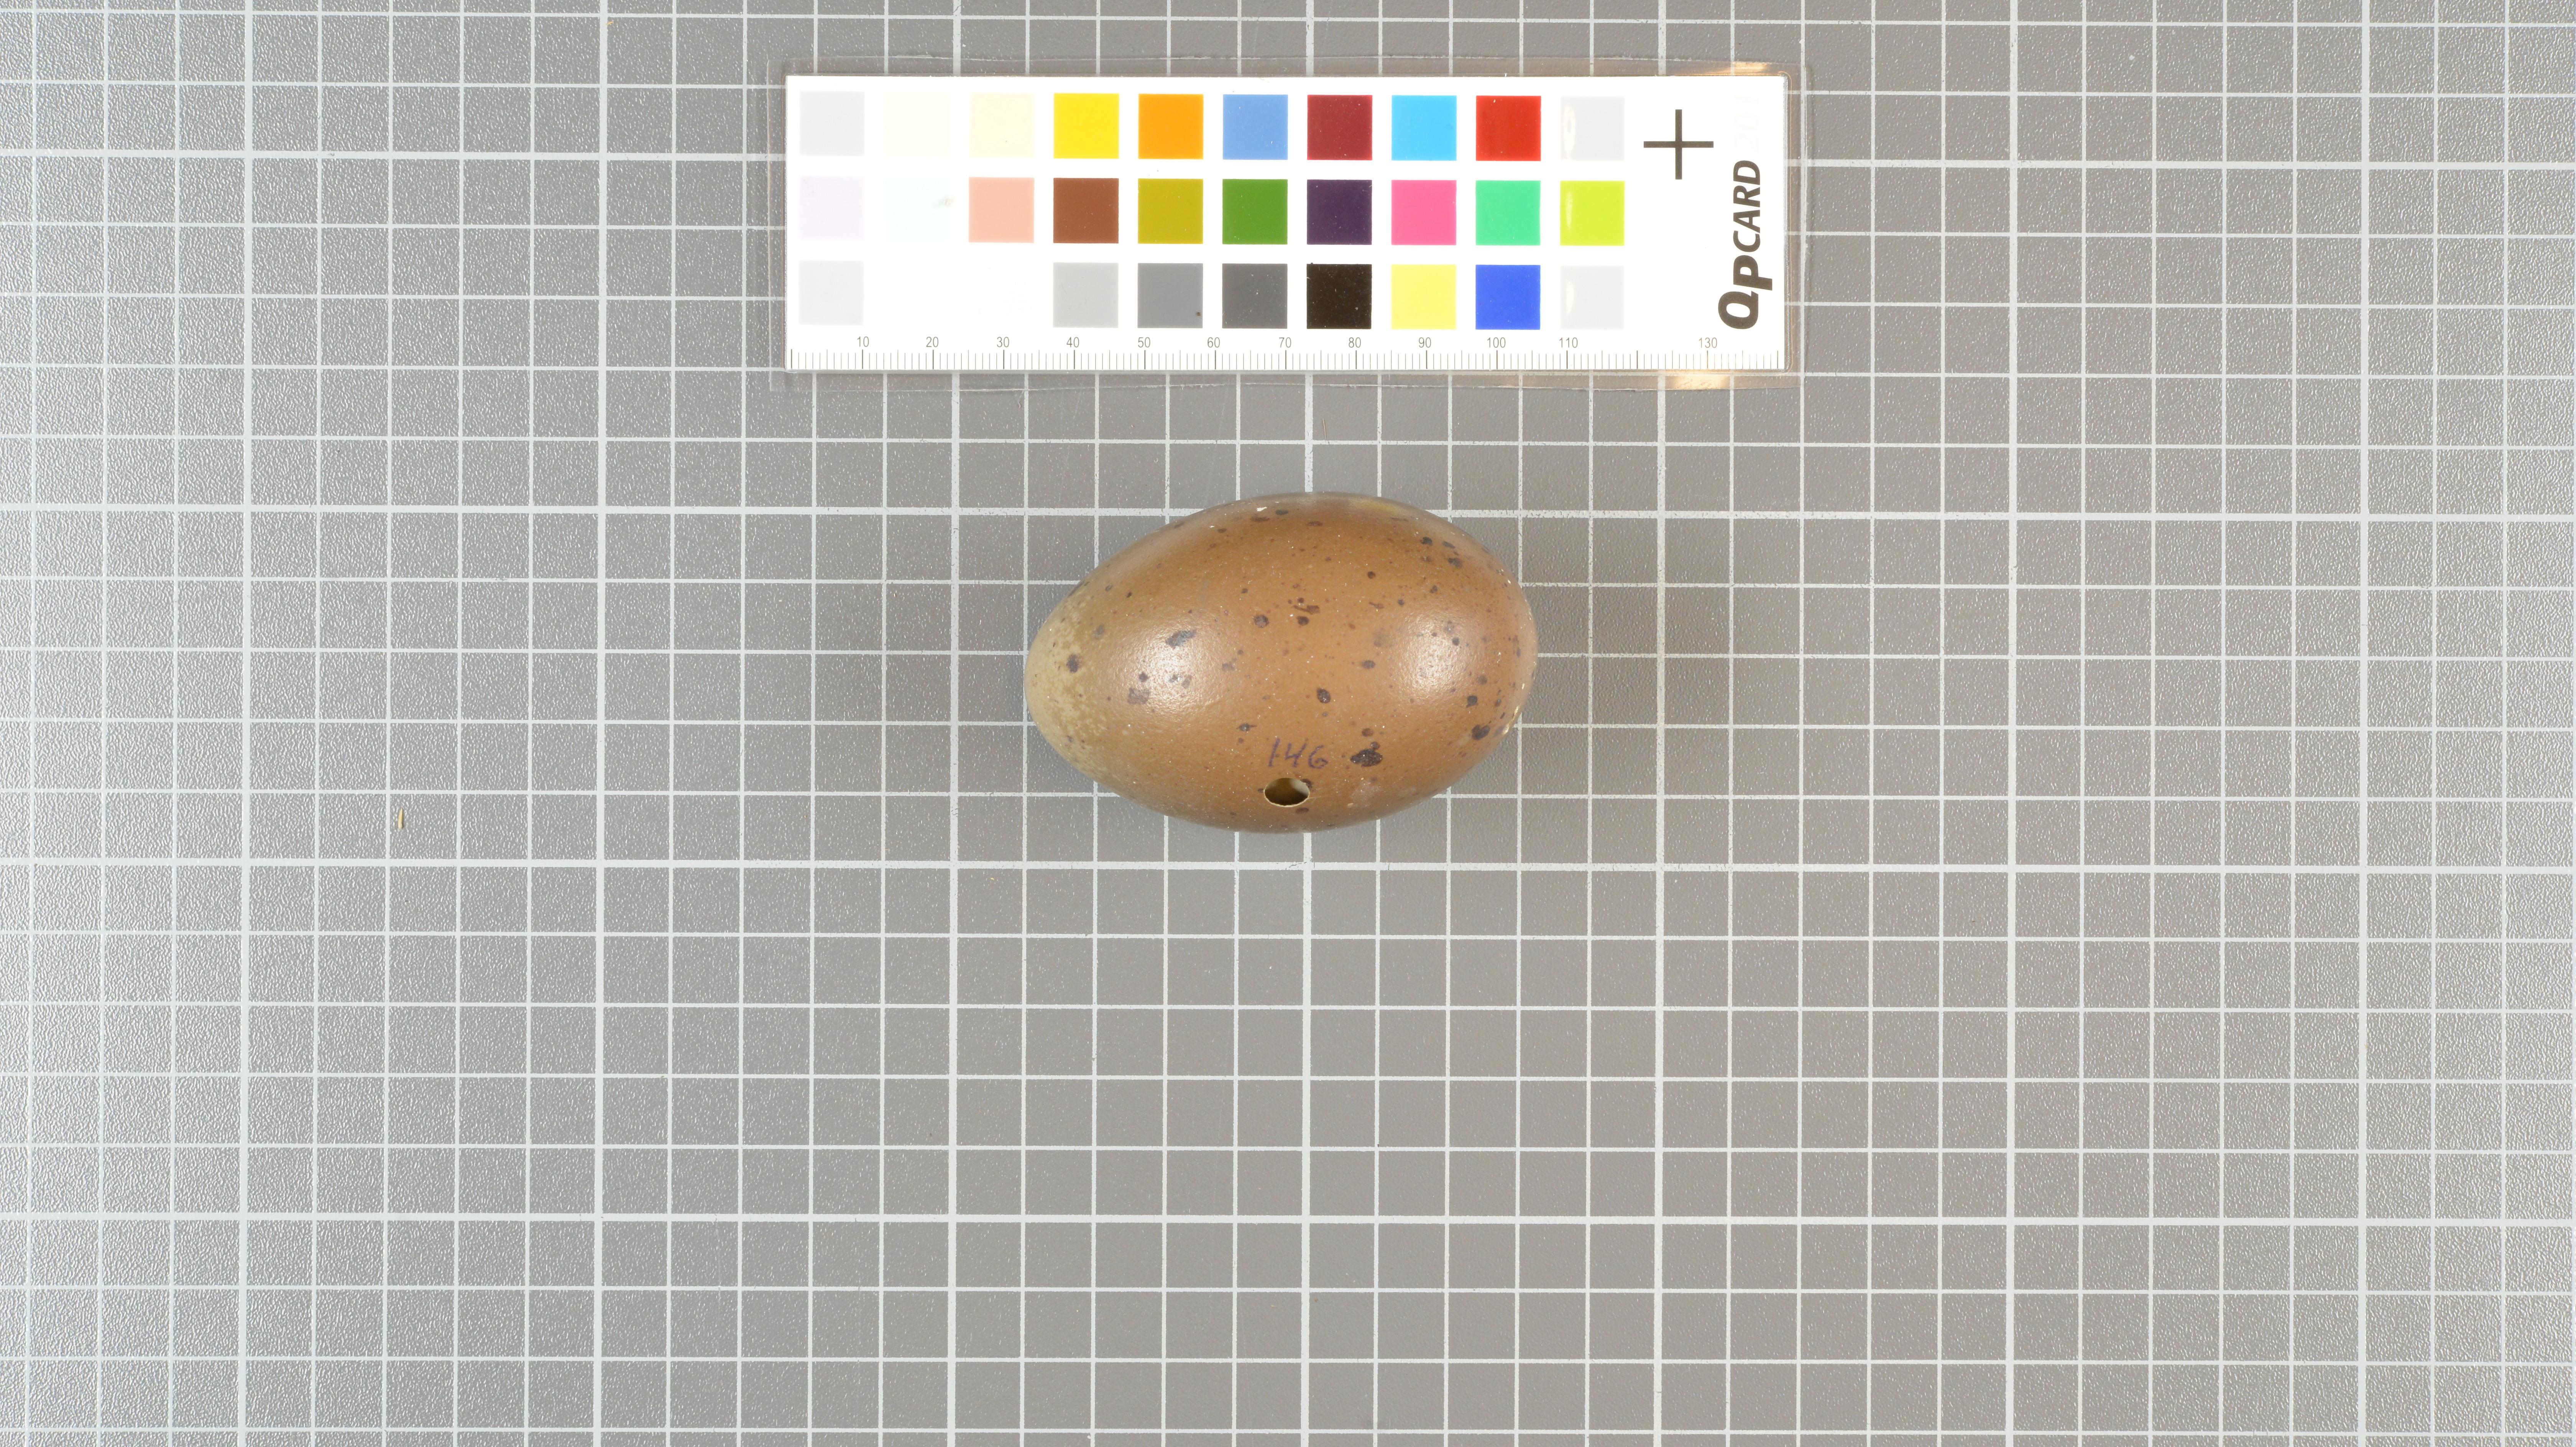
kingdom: Animalia
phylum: Chordata
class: Aves
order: Gaviiformes
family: Gaviidae
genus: Gavia
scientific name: Gavia stellata
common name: Red-throated loon
